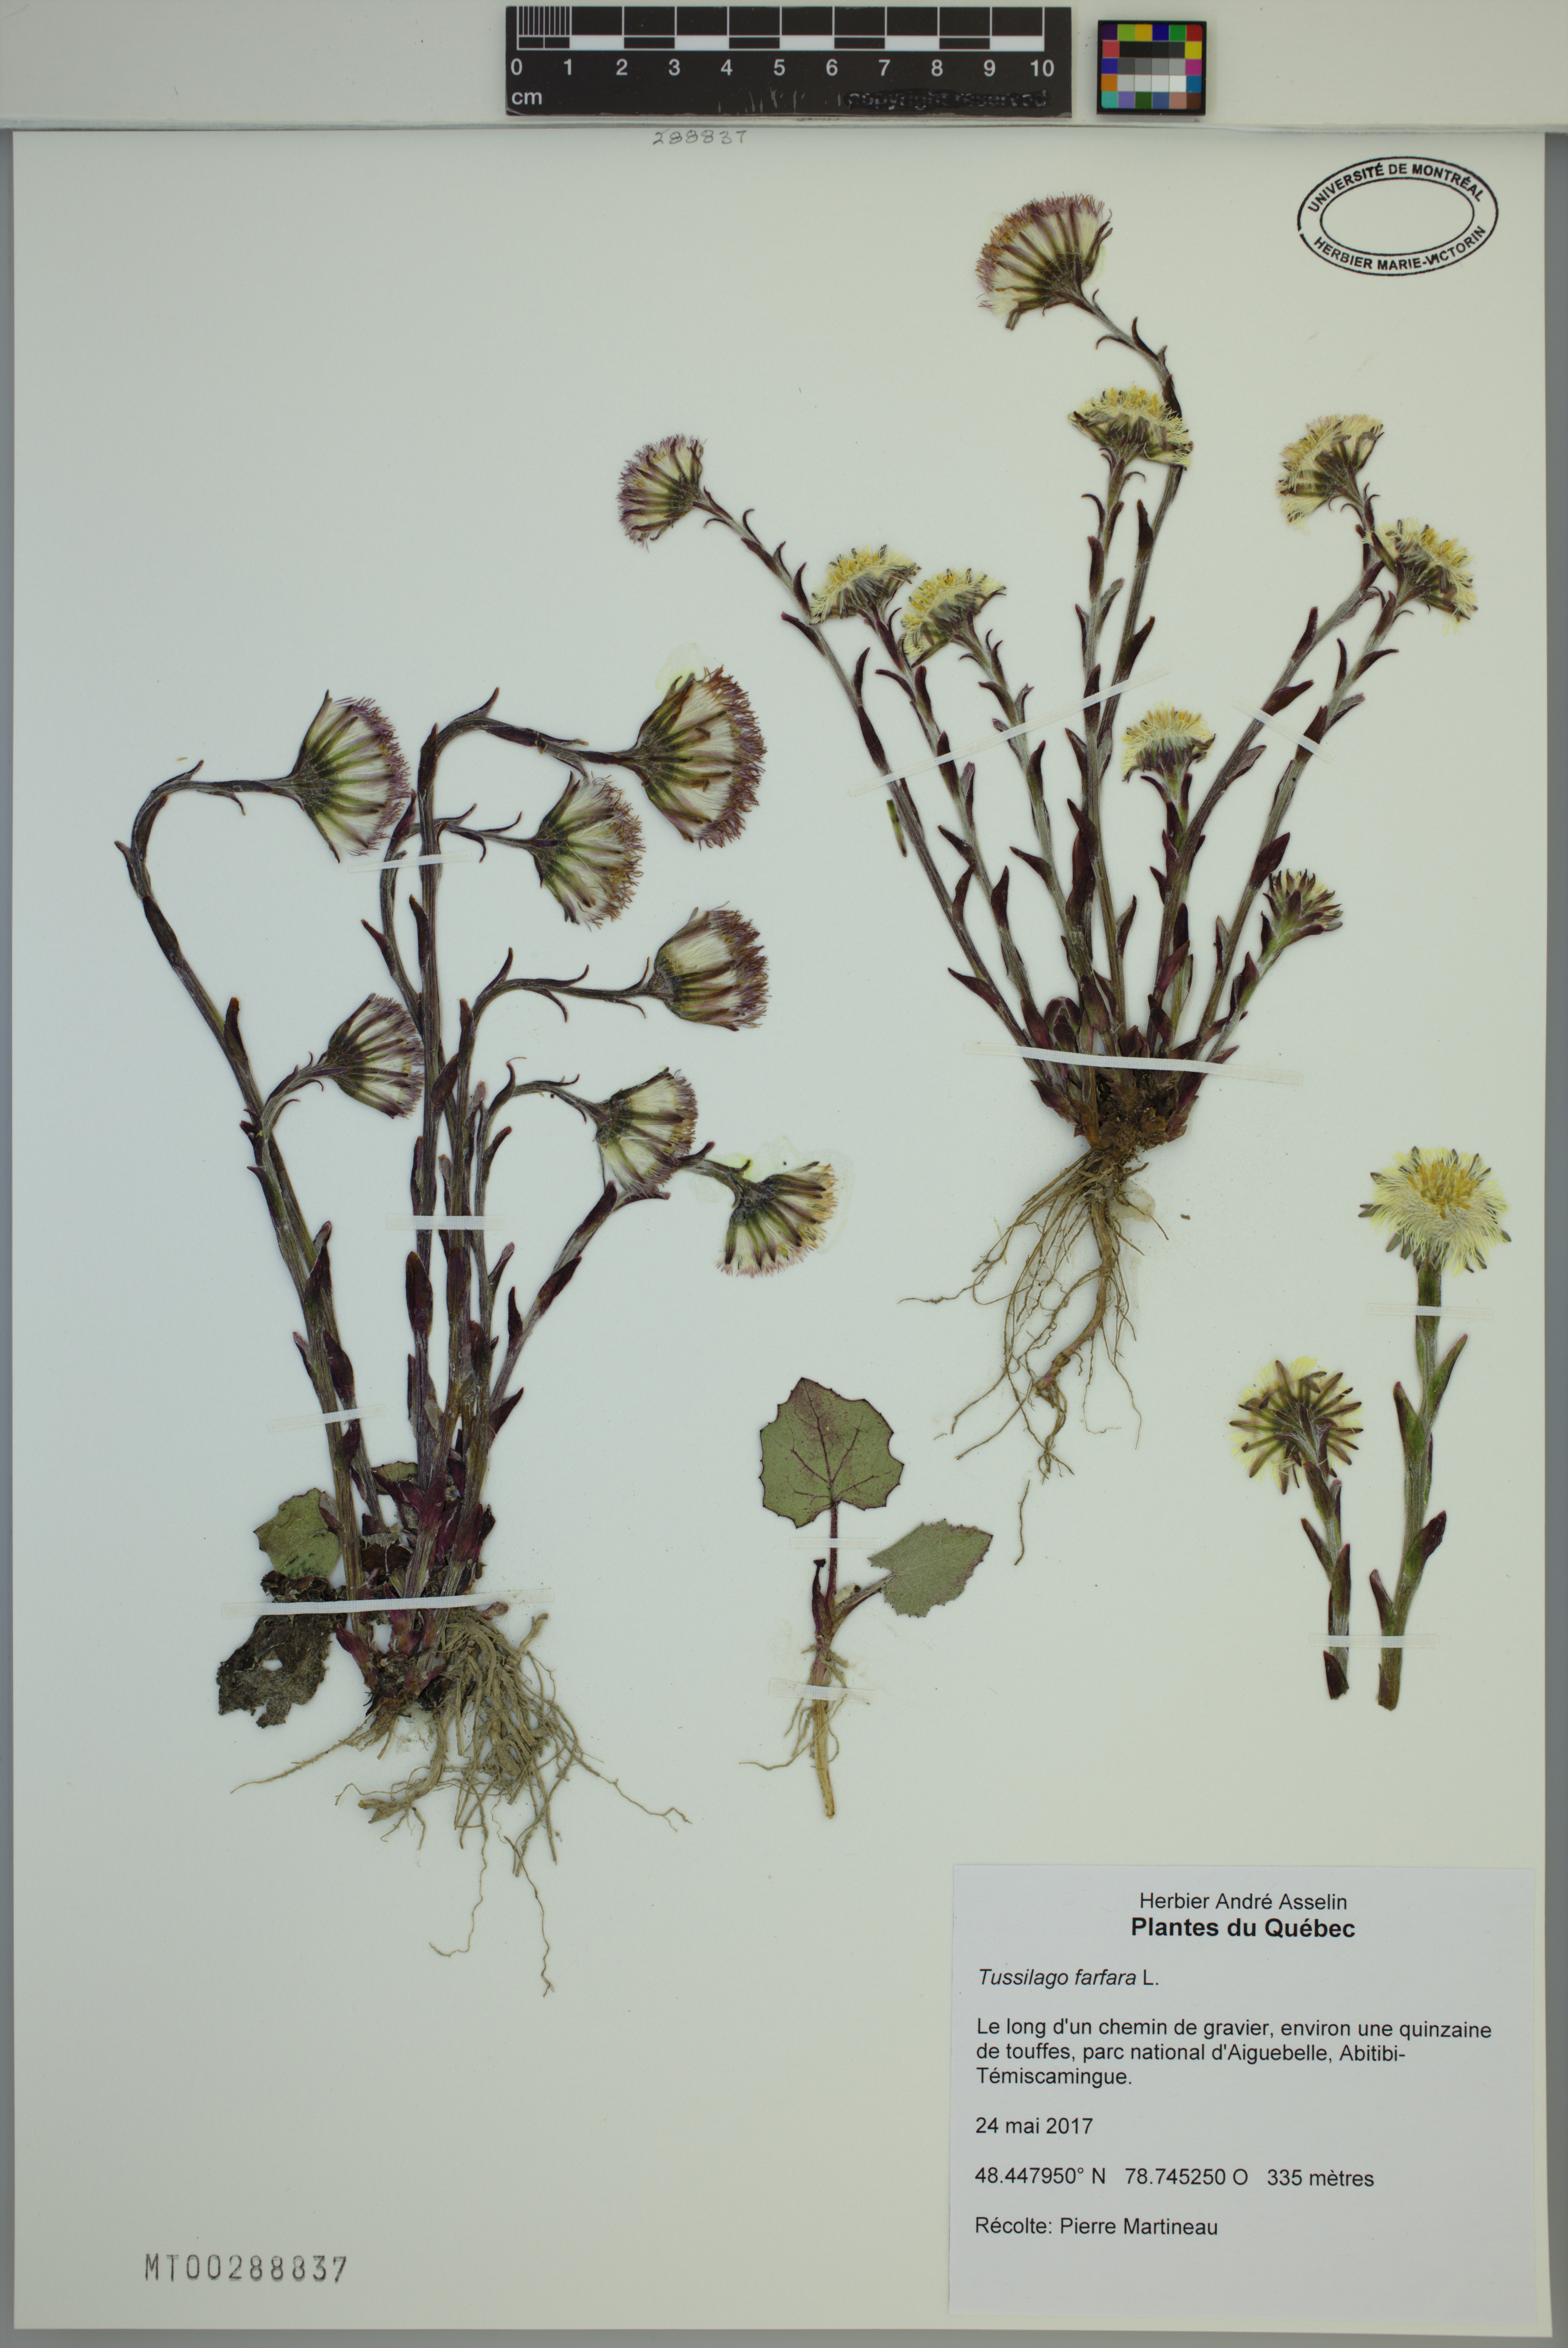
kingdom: Plantae
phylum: Tracheophyta
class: Magnoliopsida
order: Asterales
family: Asteraceae
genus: Tussilago
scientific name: Tussilago farfara
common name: Coltsfoot
